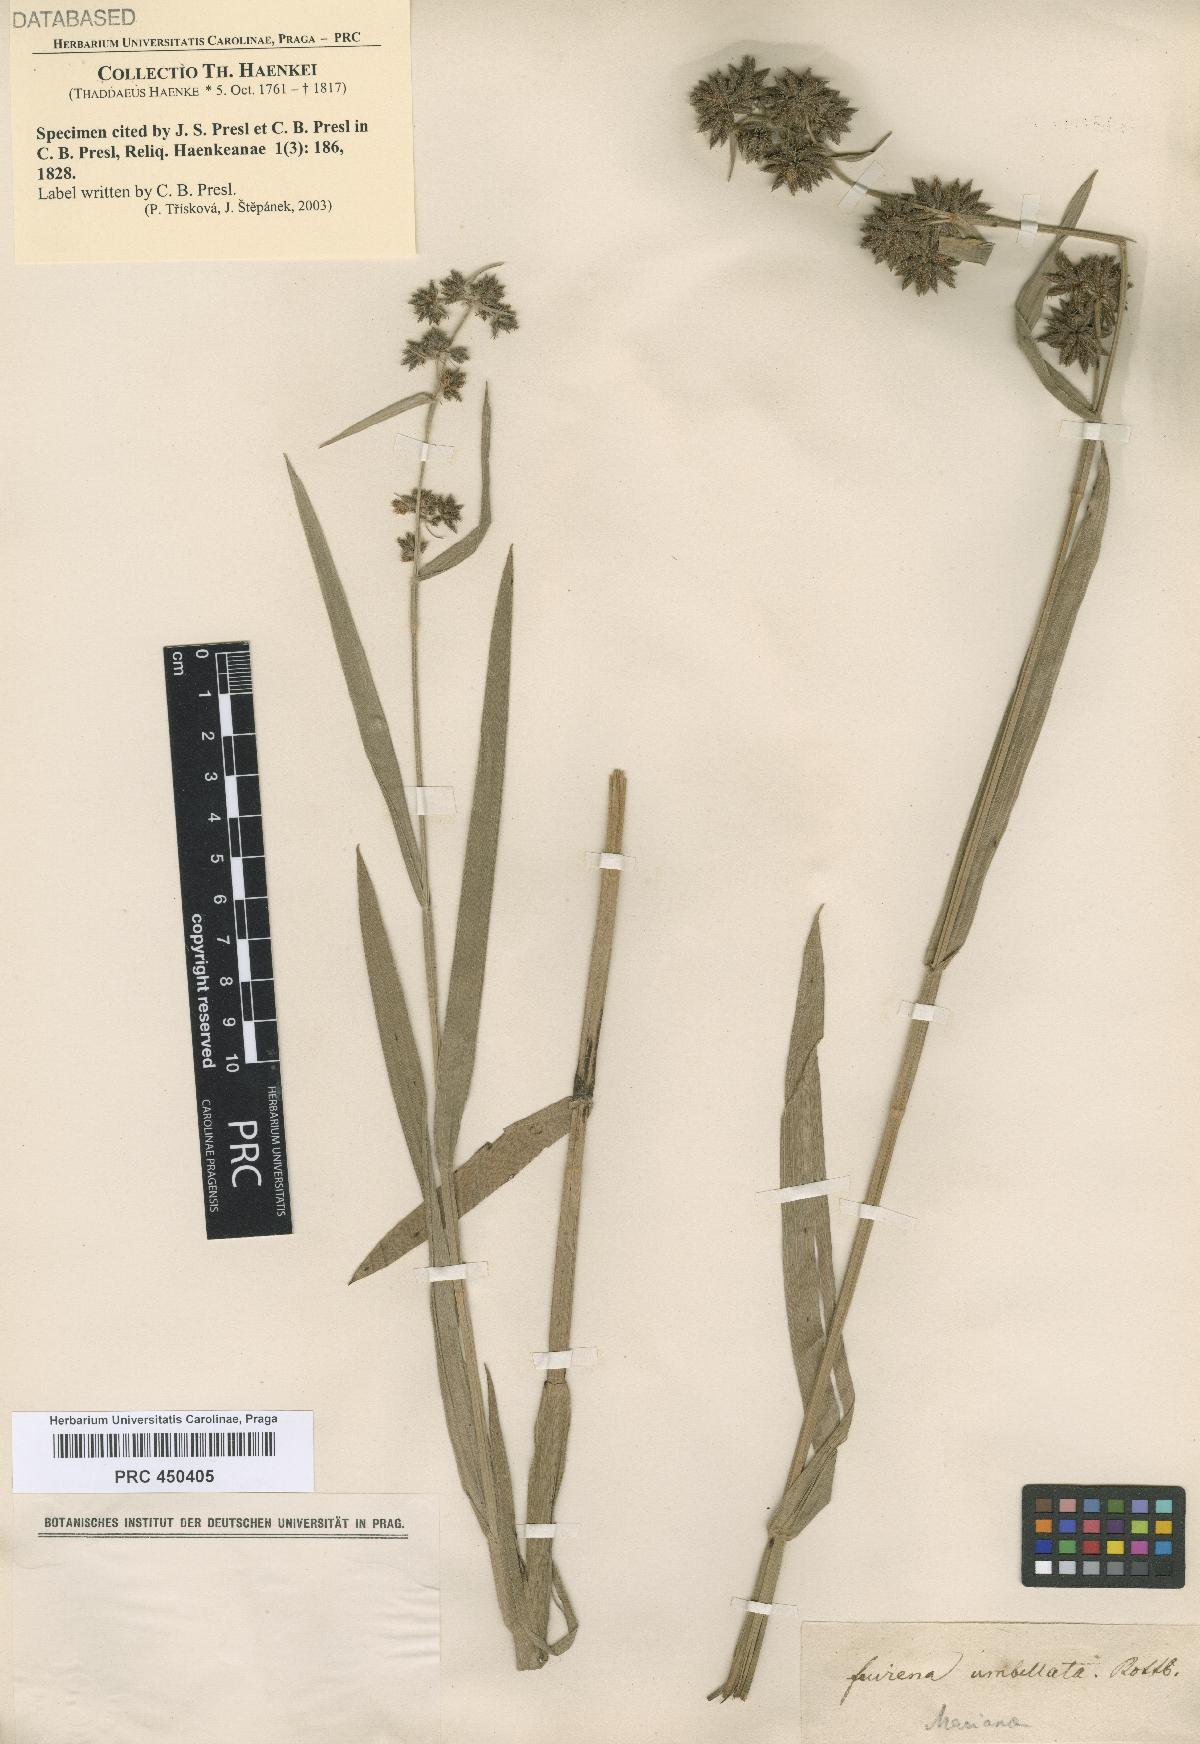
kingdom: Plantae
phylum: Tracheophyta
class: Liliopsida
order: Poales
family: Cyperaceae
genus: Fuirena
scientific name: Fuirena umbellata
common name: Yefen
